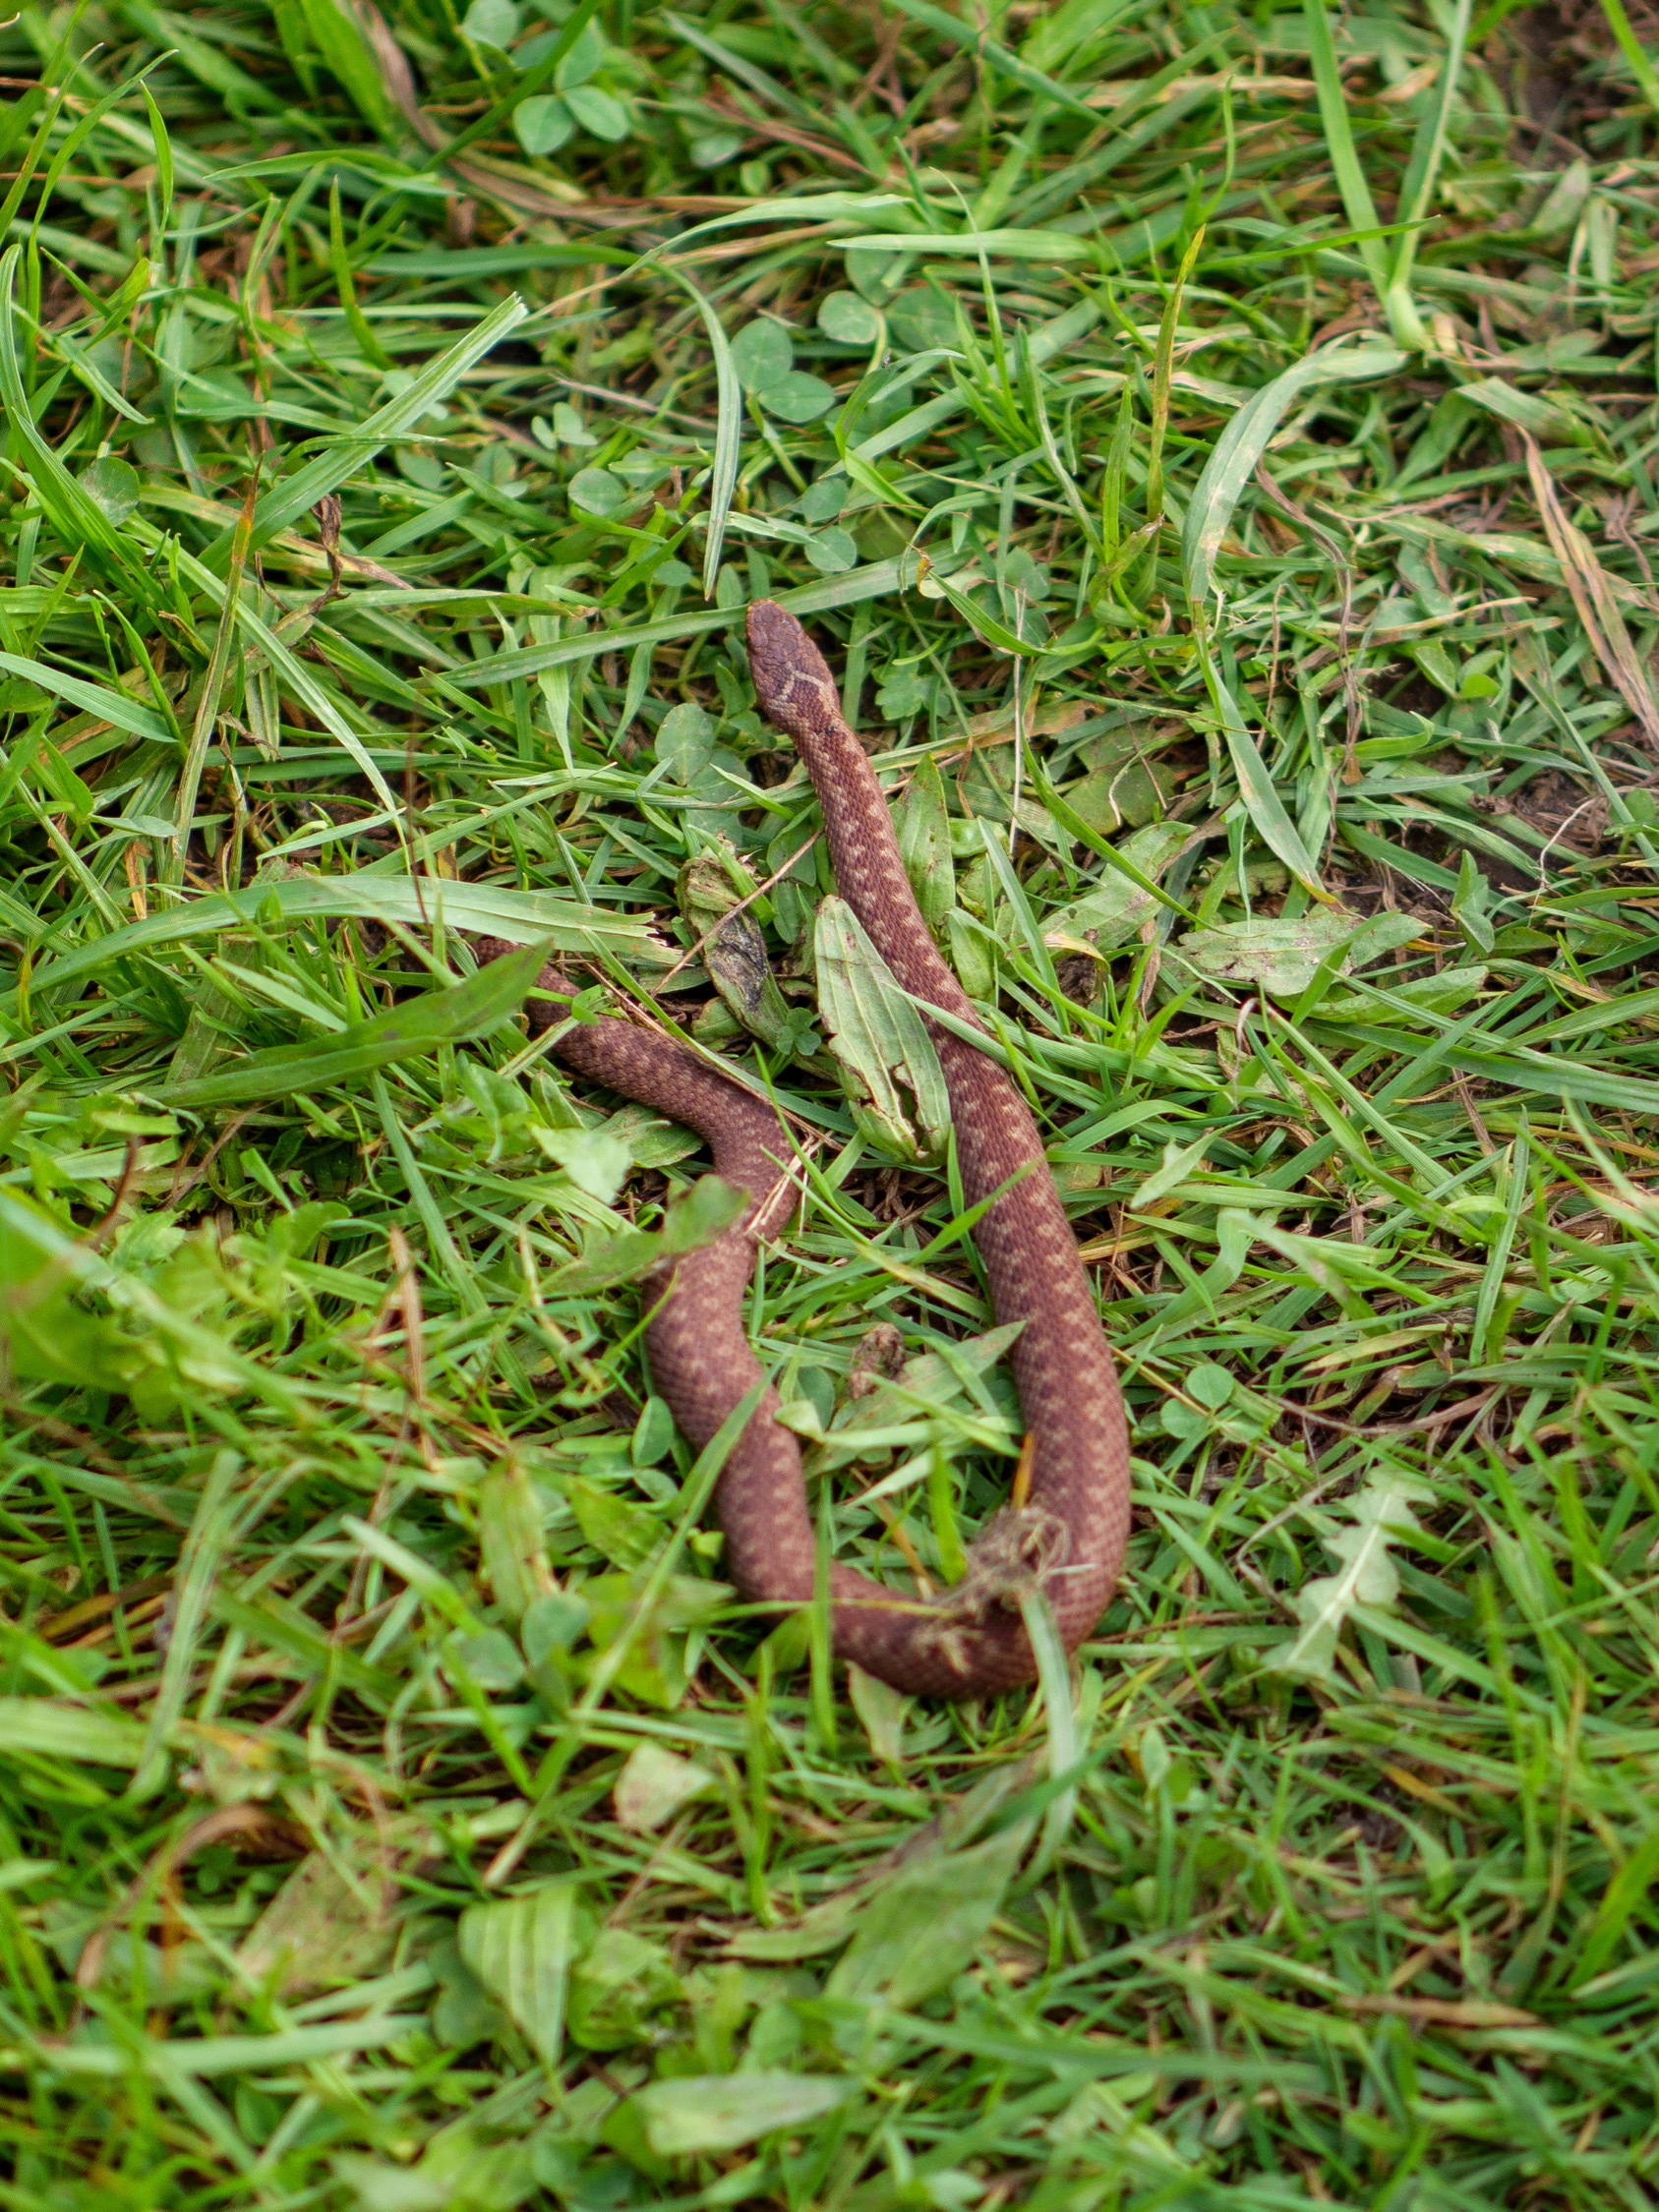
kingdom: Animalia
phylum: Chordata
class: Squamata
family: Viperidae
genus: Vipera
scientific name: Vipera berus
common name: Hugorm
